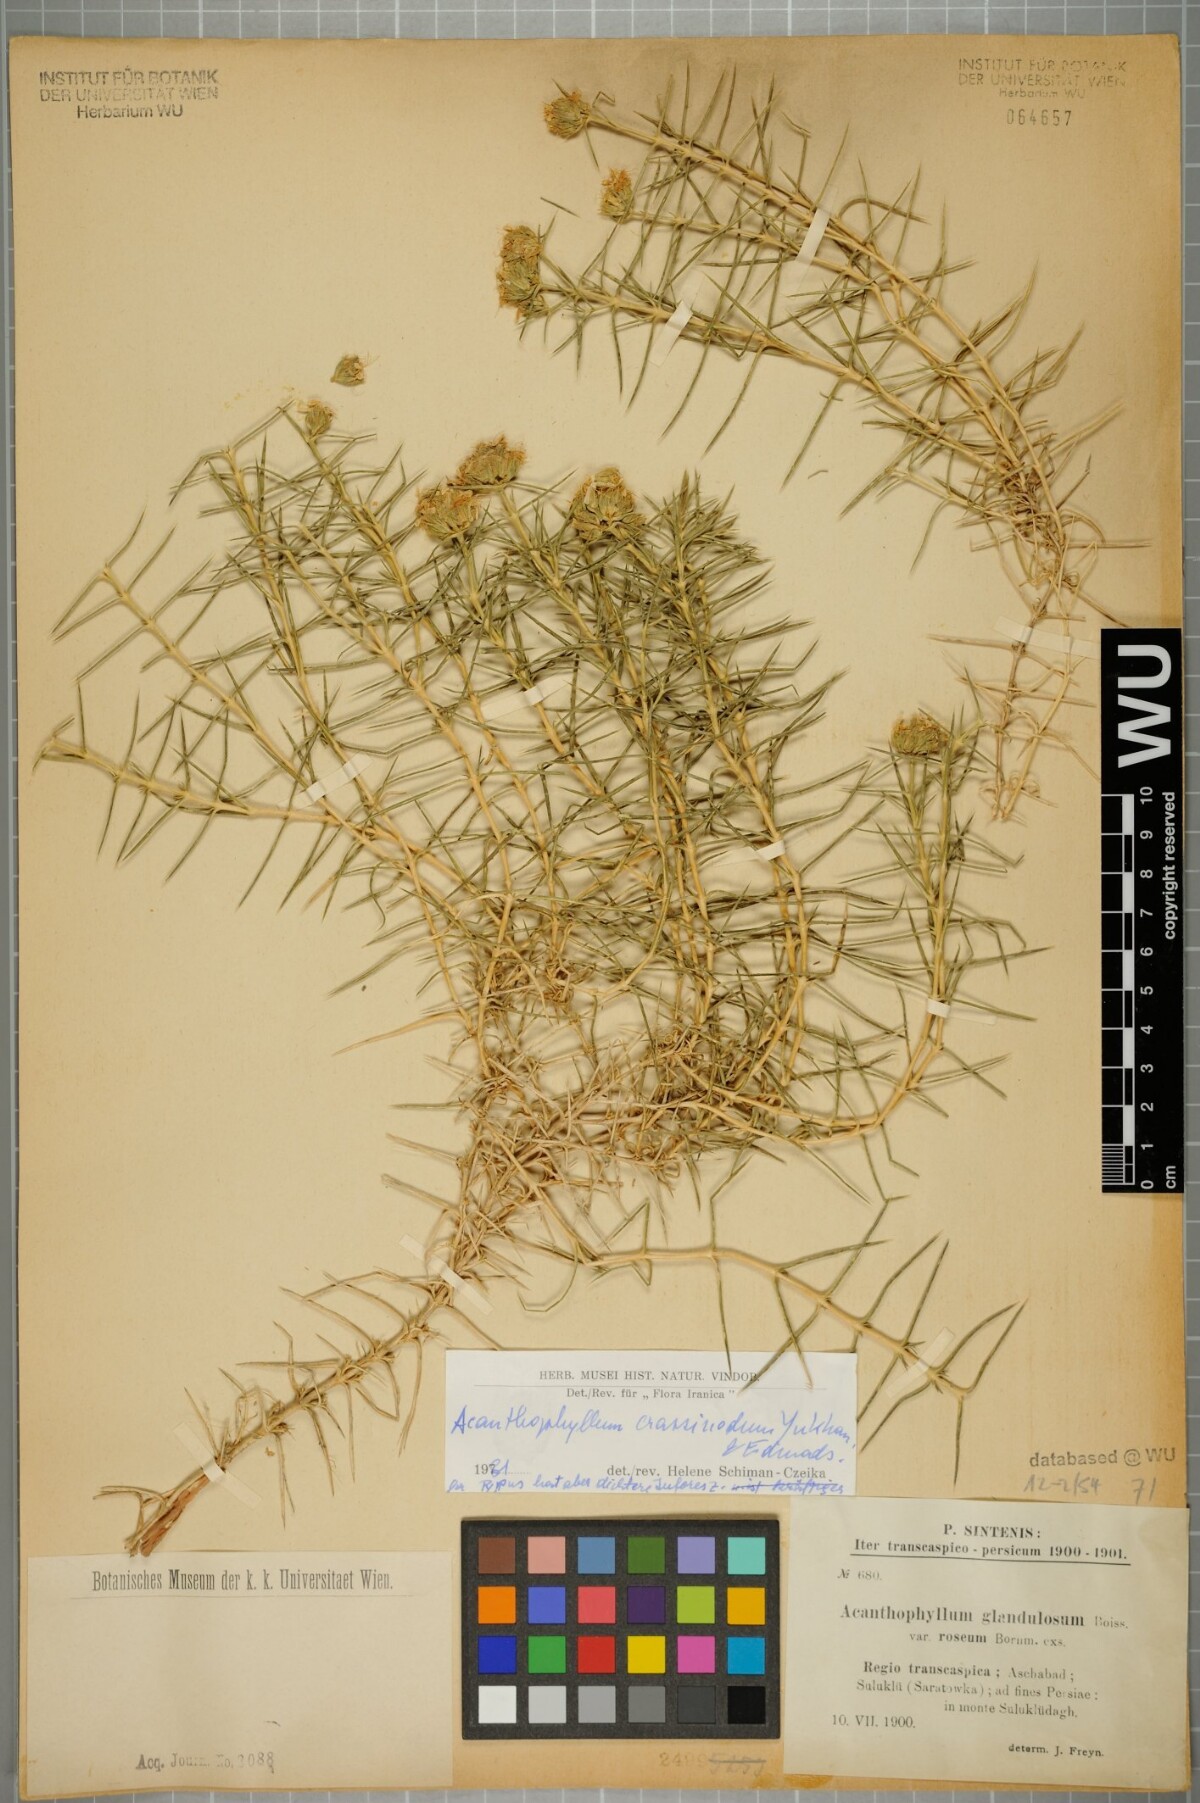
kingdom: Plantae
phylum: Tracheophyta
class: Magnoliopsida
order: Caryophyllales
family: Caryophyllaceae
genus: Acanthophyllum
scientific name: Acanthophyllum glandulosum
